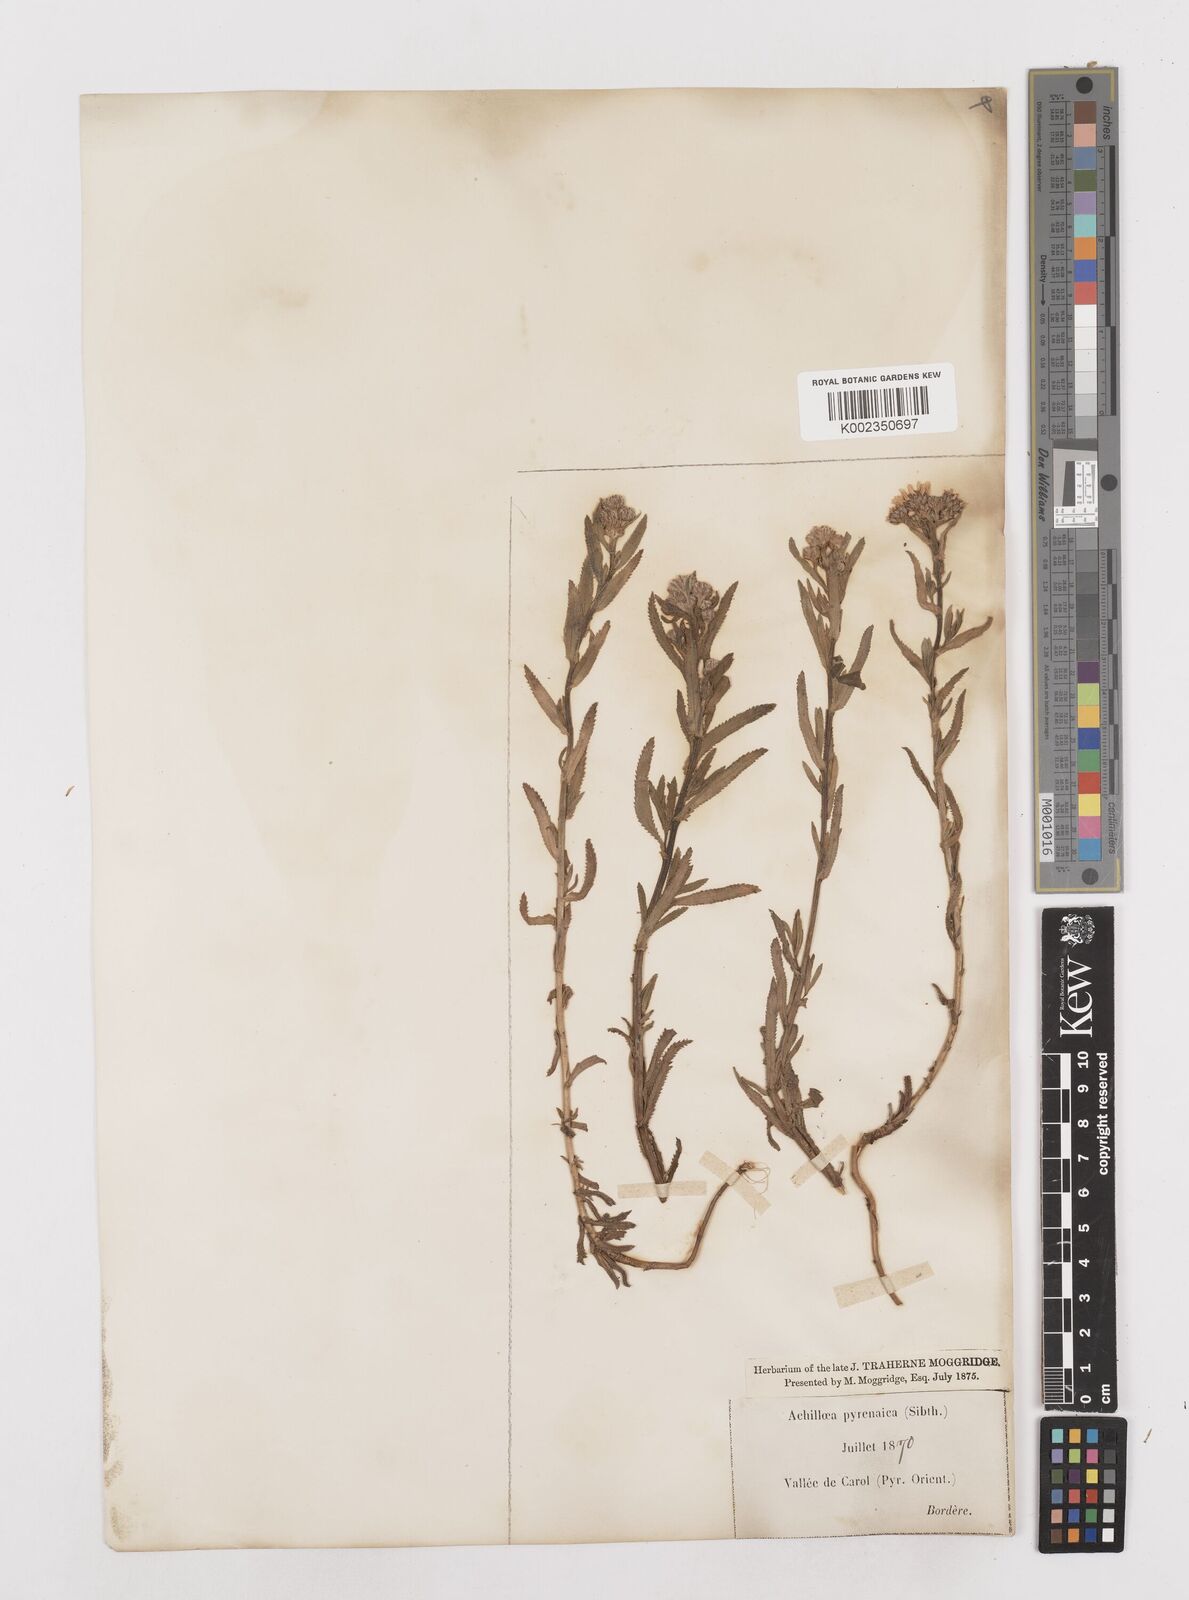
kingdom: Plantae
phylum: Tracheophyta
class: Magnoliopsida
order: Asterales
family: Asteraceae
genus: Achillea
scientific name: Achillea pyrenaica
